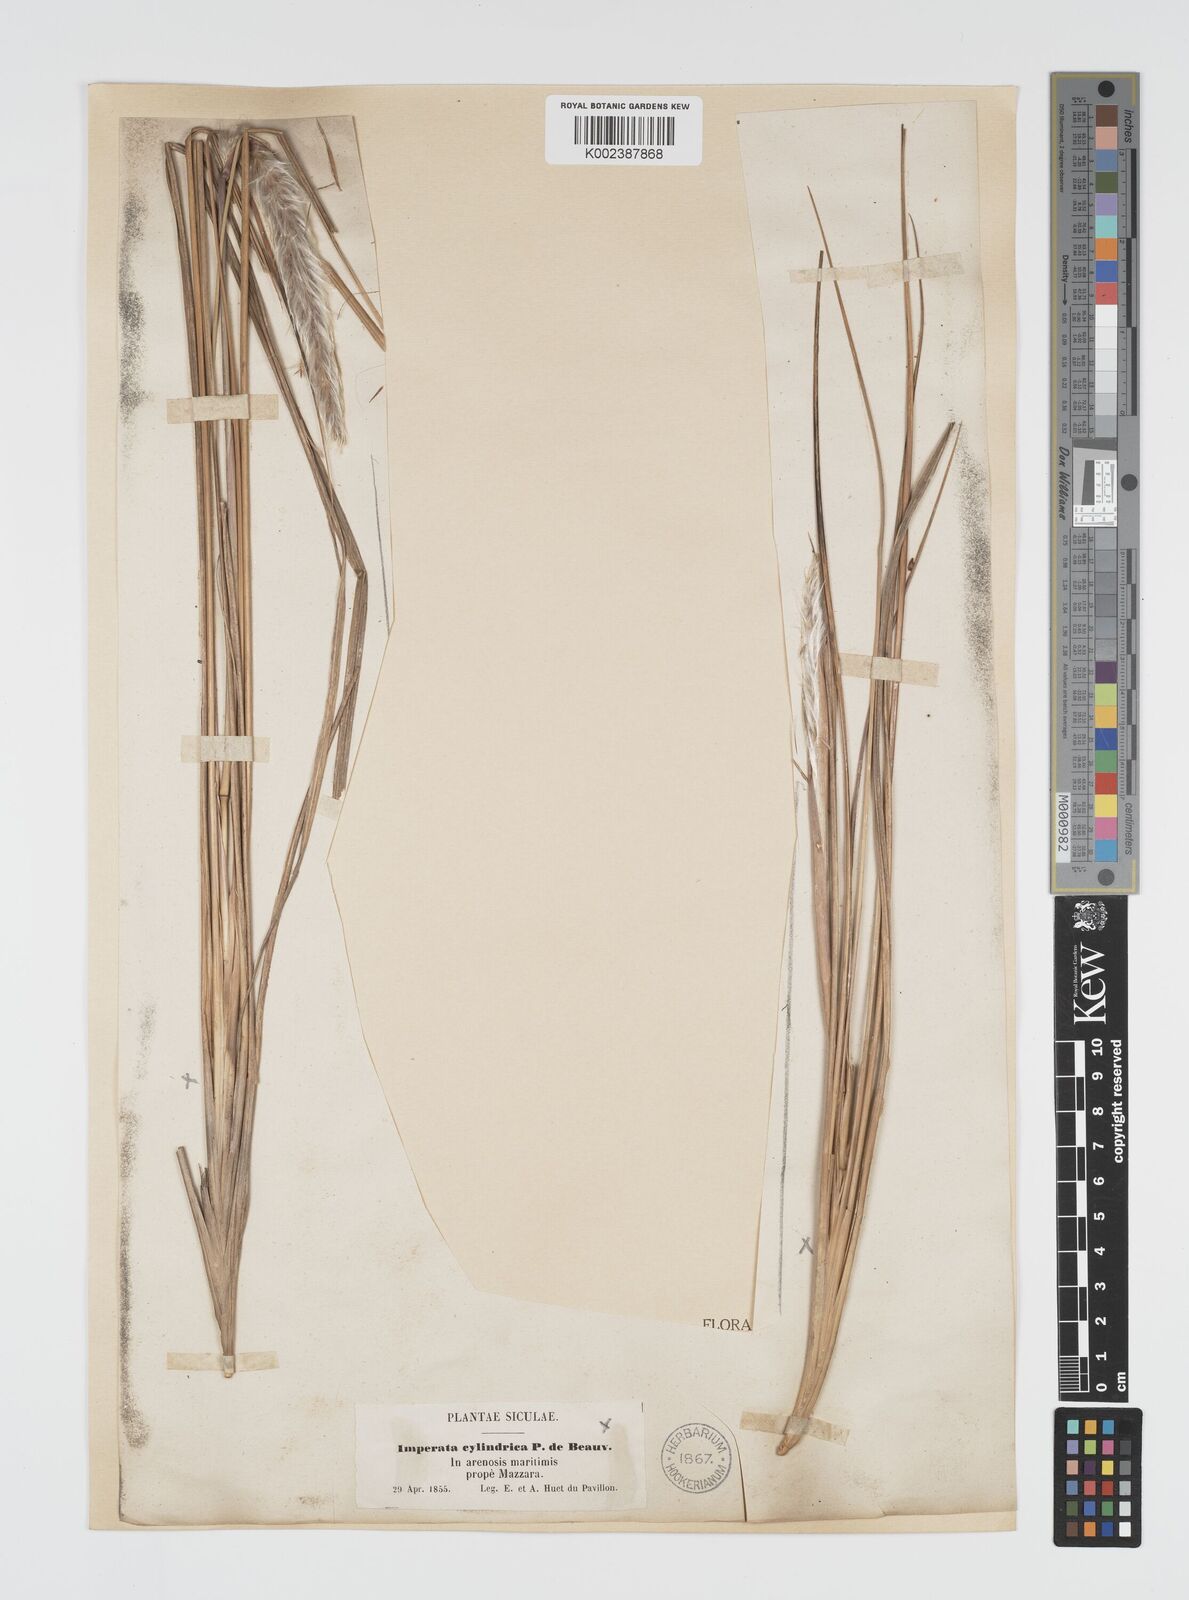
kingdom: Plantae
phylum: Tracheophyta
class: Liliopsida
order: Poales
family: Poaceae
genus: Imperata
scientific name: Imperata cylindrica
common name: Cogongrass
